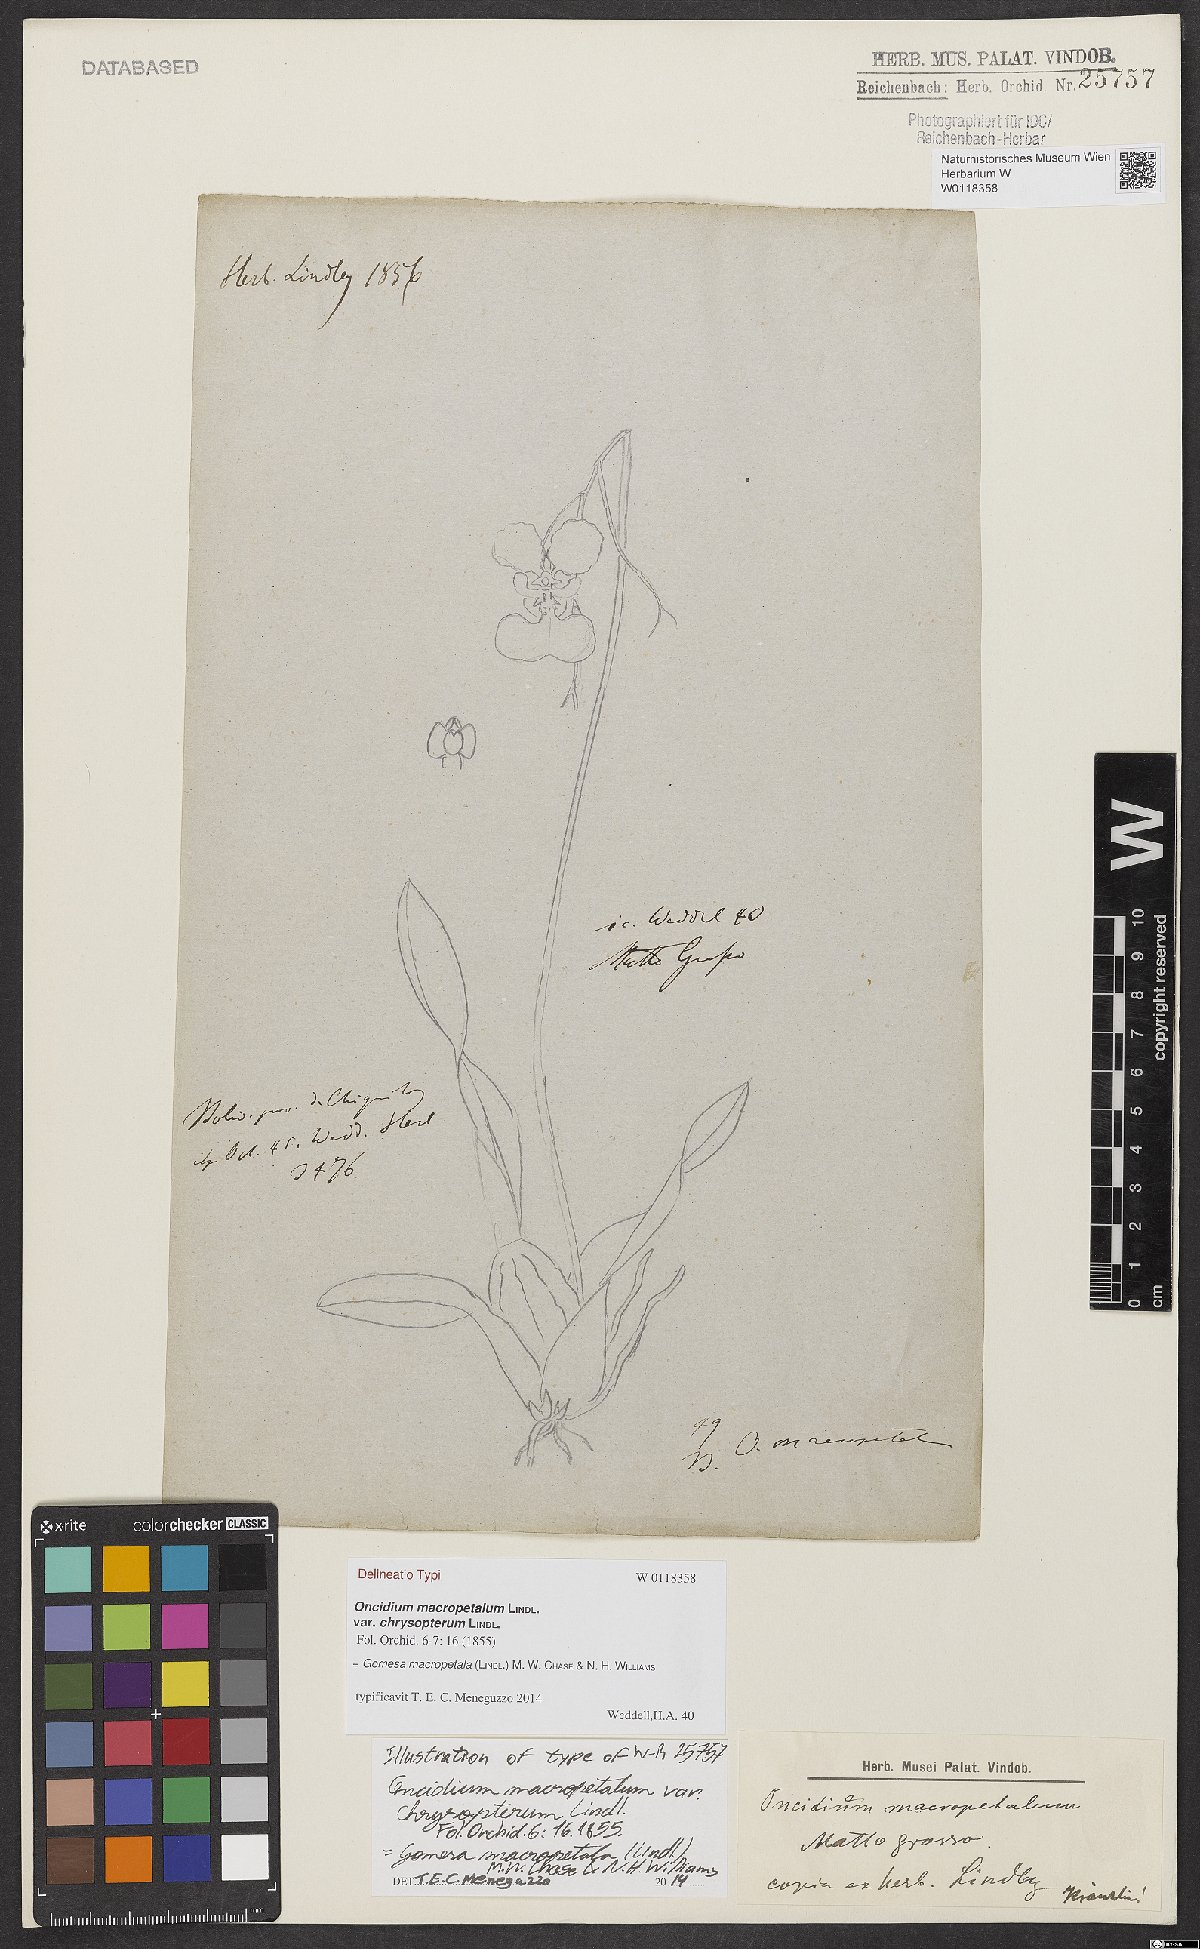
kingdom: Plantae
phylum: Tracheophyta
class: Liliopsida
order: Asparagales
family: Orchidaceae
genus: Gomesa
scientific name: Gomesa chrysoptera
